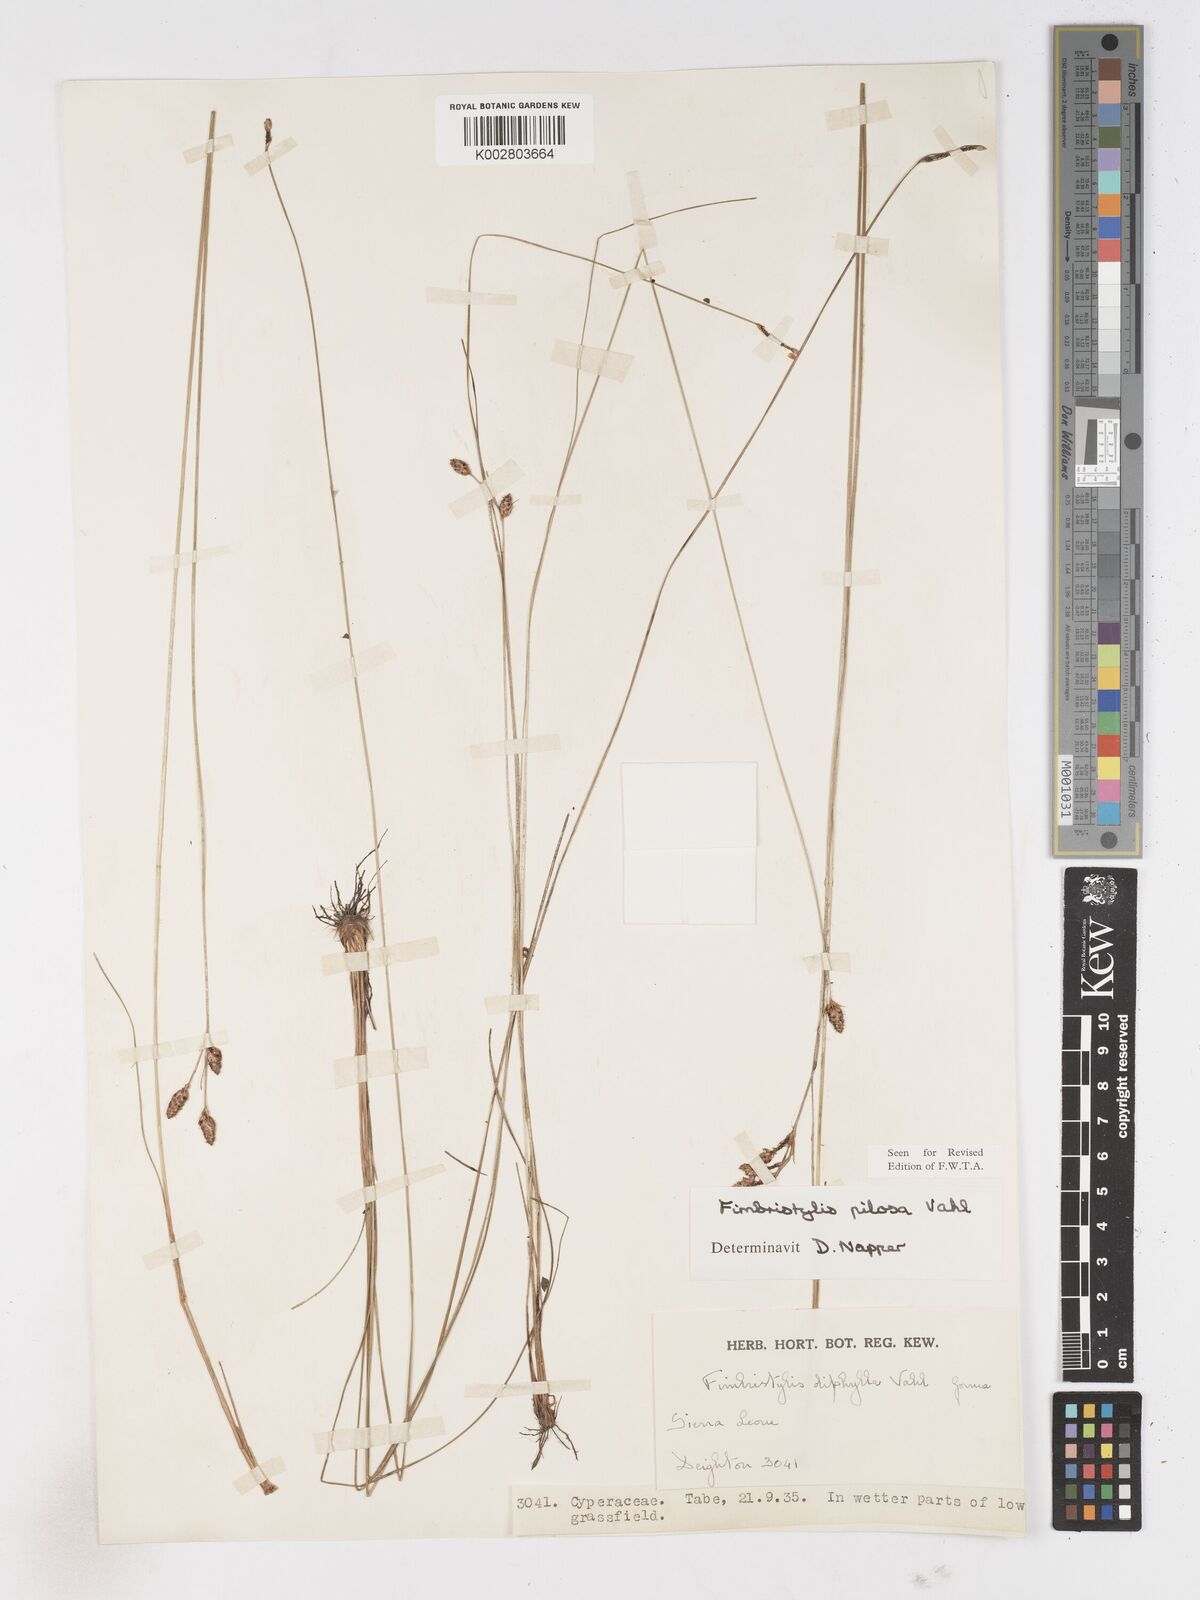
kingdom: Plantae
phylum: Tracheophyta
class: Liliopsida
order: Poales
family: Cyperaceae
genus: Fimbristylis
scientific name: Fimbristylis pilosa
